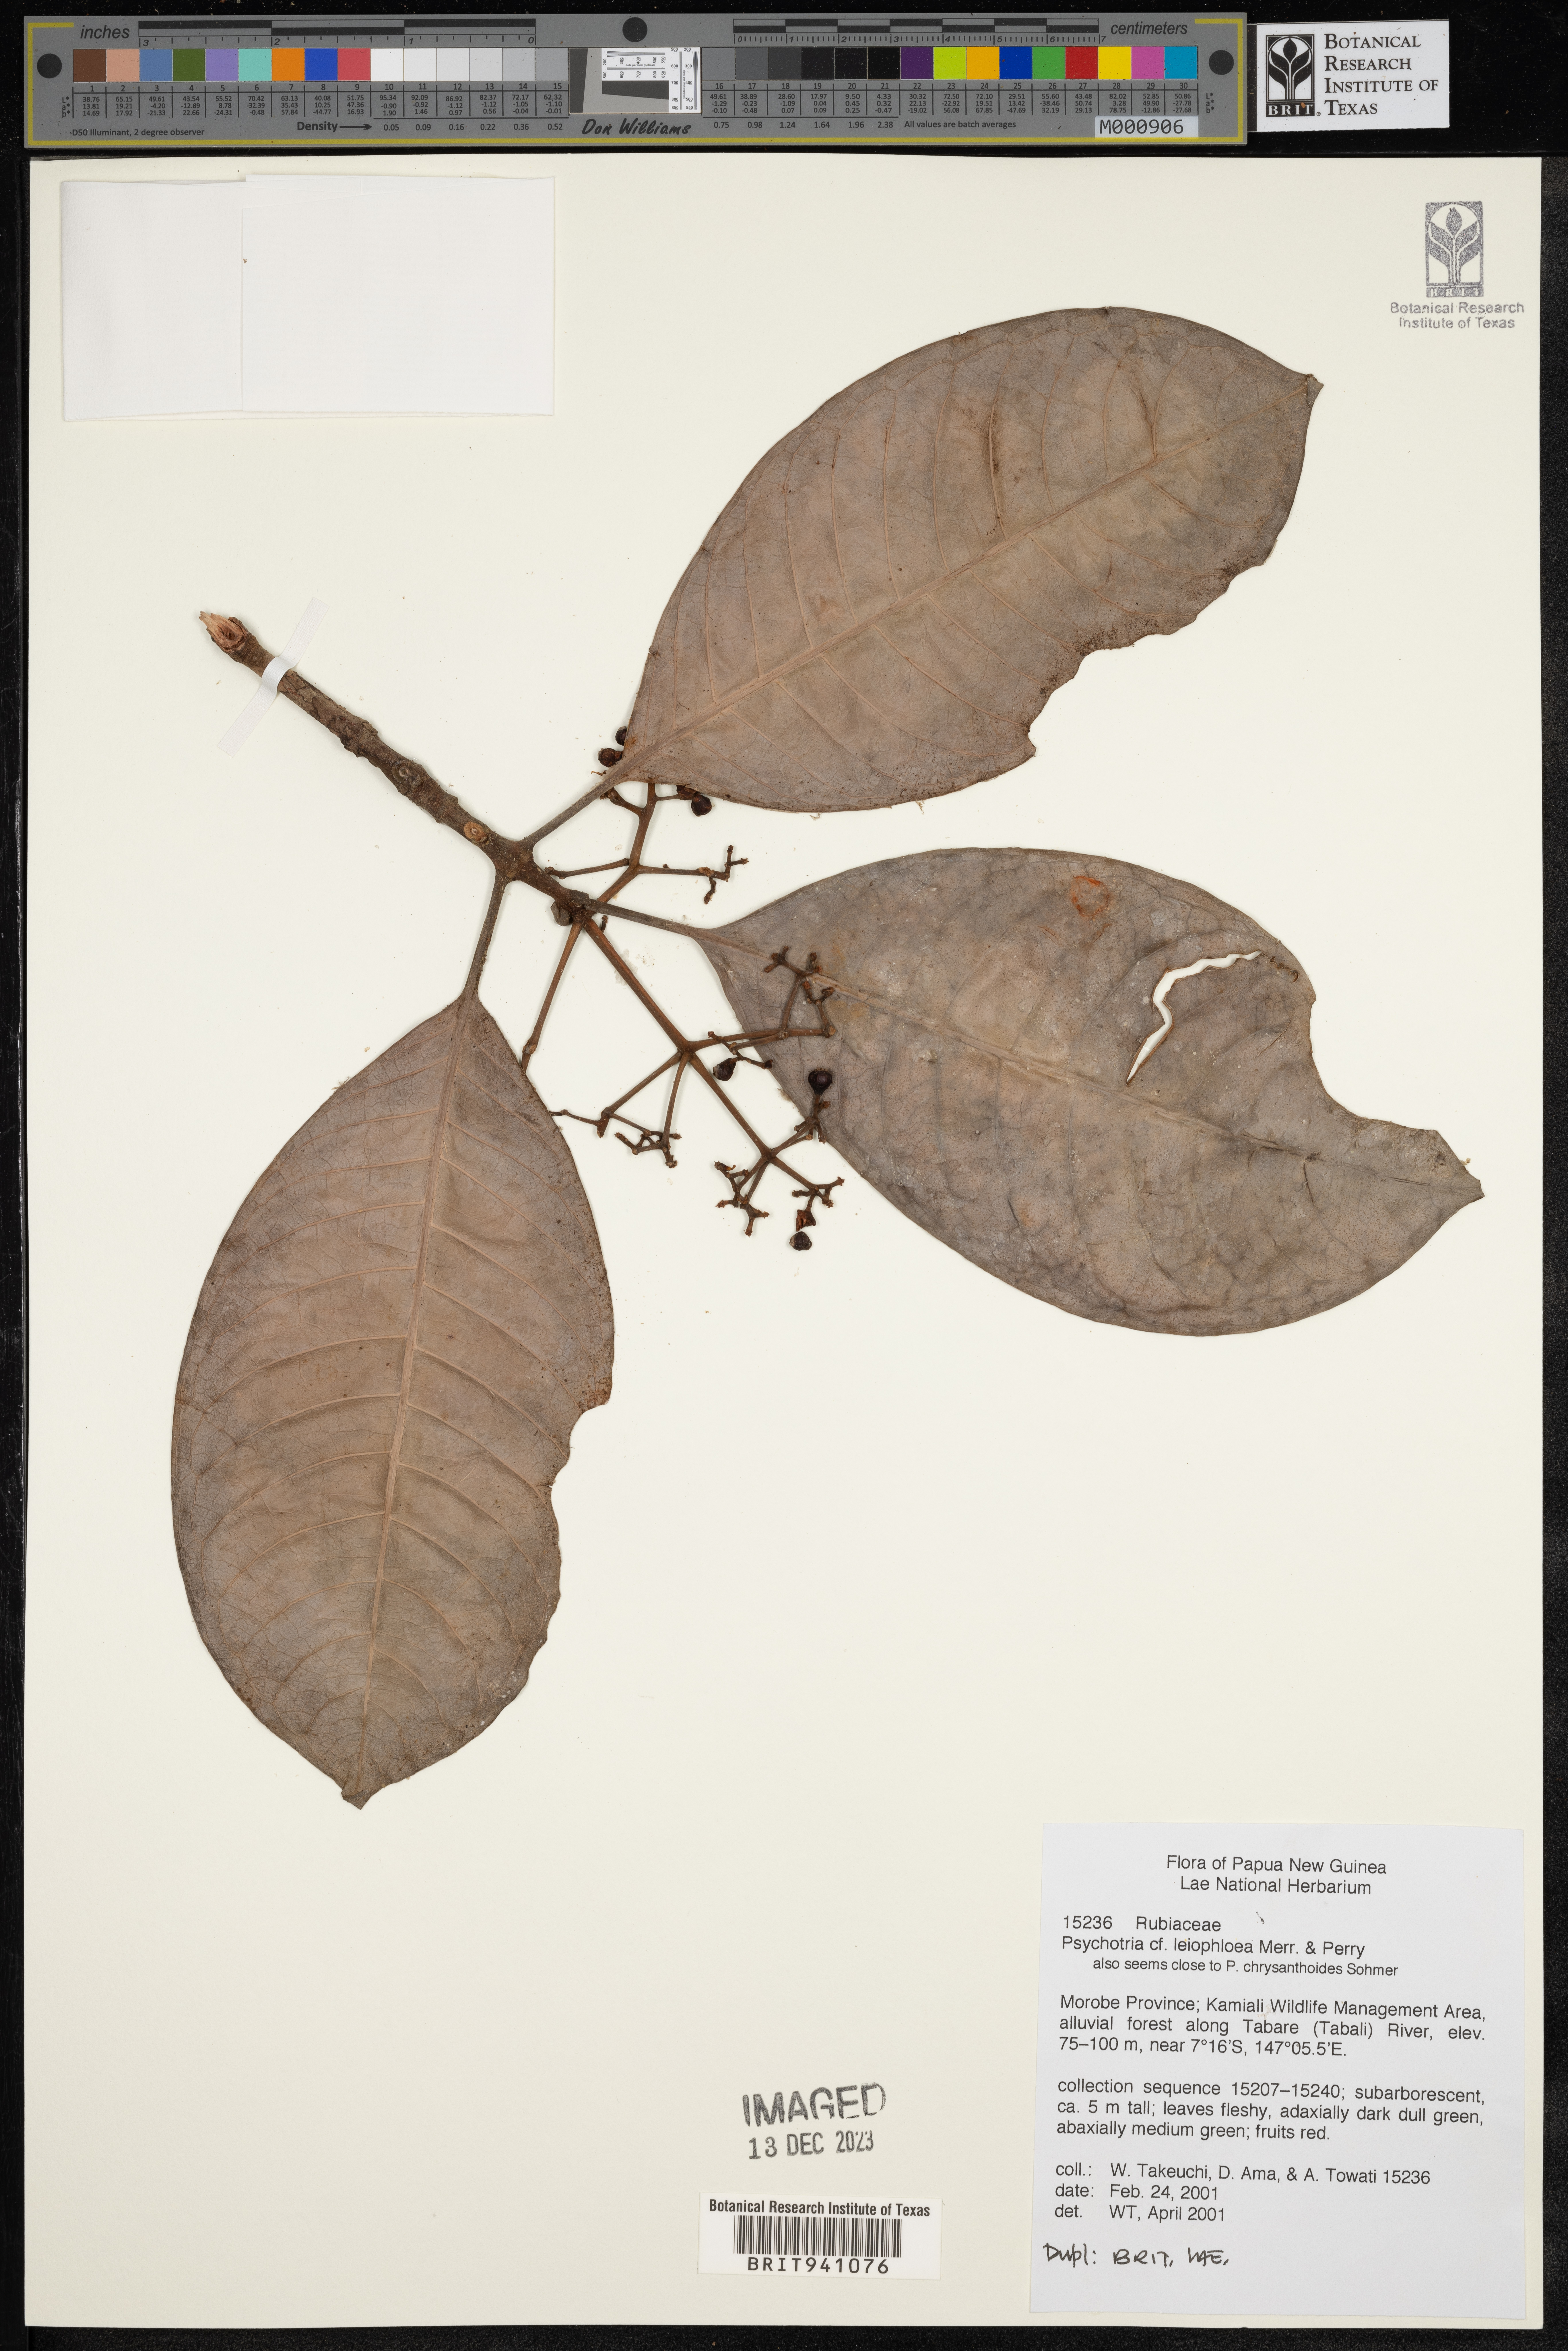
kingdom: Plantae
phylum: Tracheophyta
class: Magnoliopsida
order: Gentianales
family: Rubiaceae
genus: Psychotria
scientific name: Psychotria
